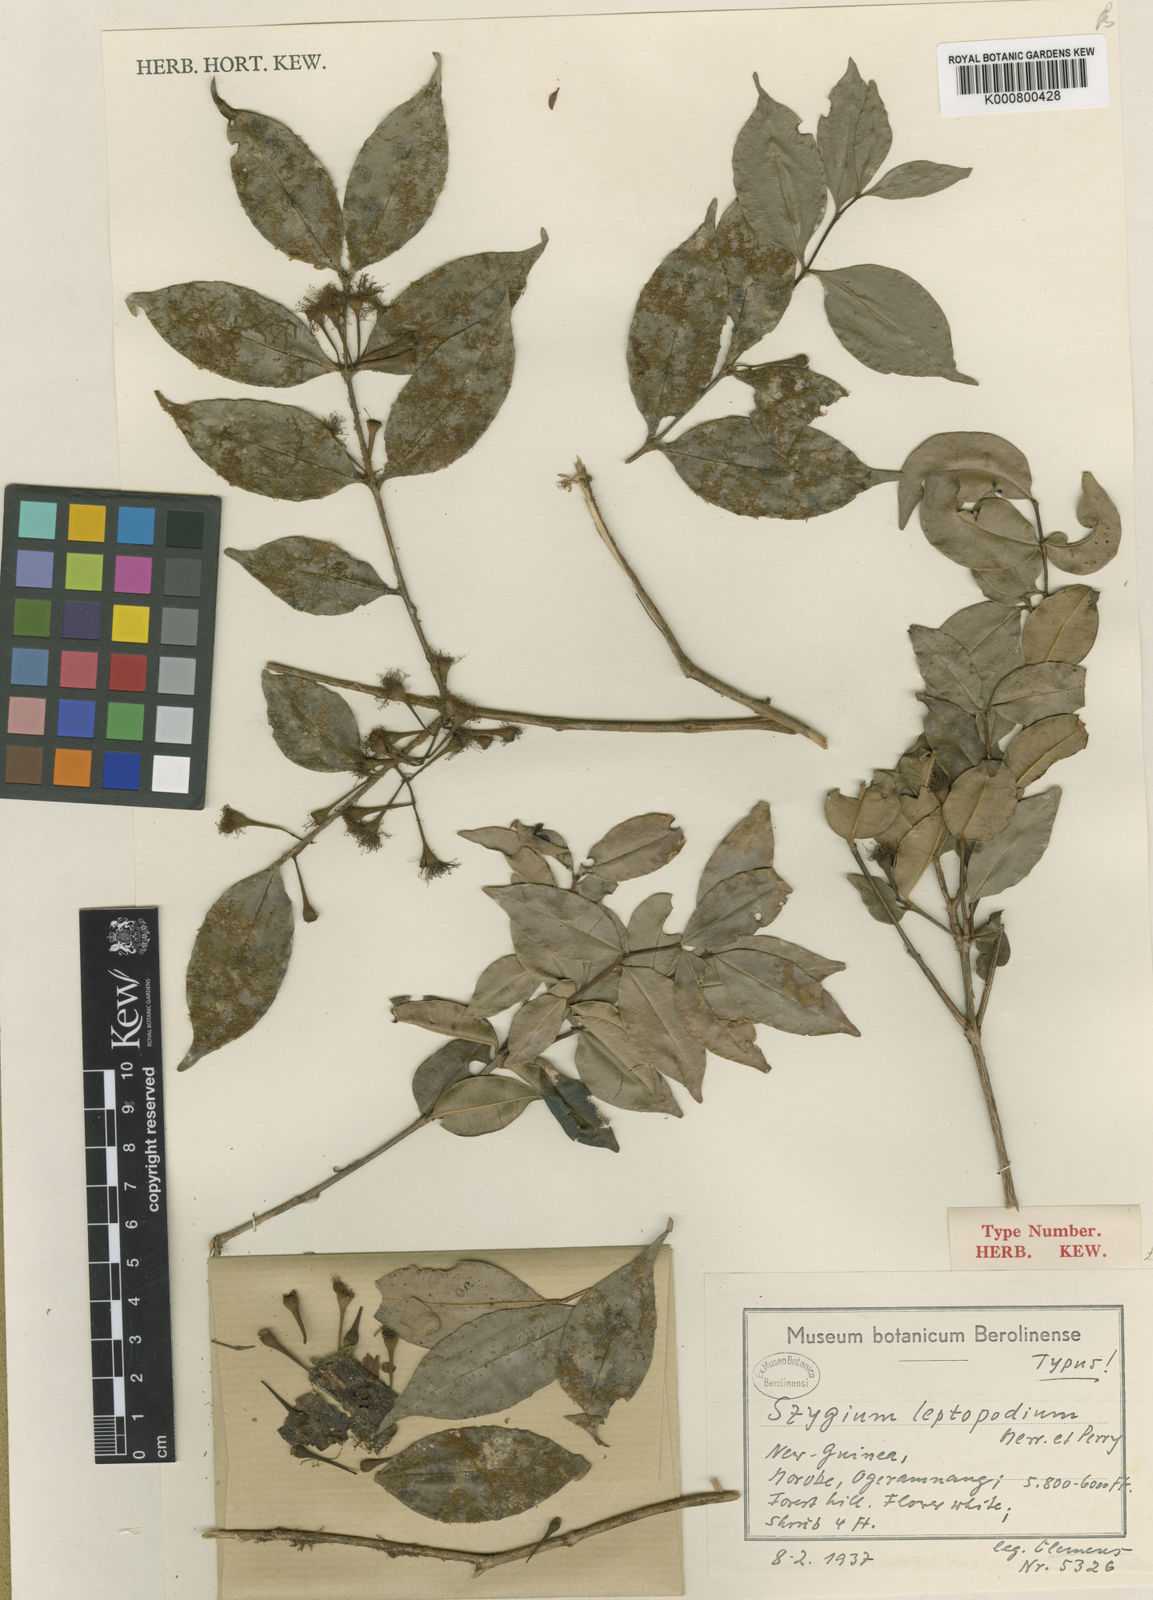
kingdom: Plantae
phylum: Tracheophyta
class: Magnoliopsida
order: Myrtales
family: Myrtaceae
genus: Syzygium
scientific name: Syzygium leptopodium
